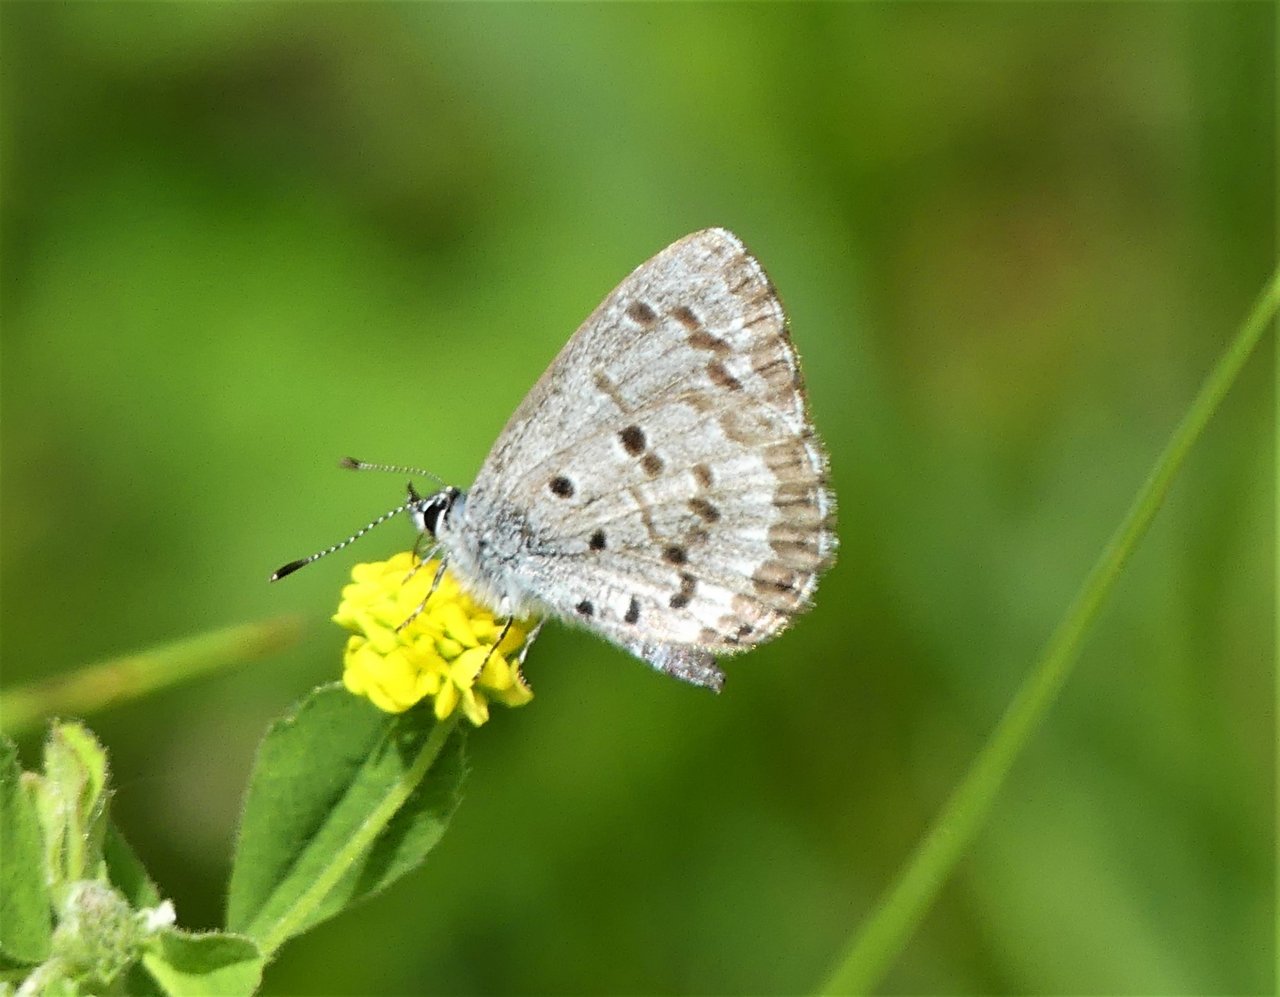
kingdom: Animalia
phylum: Arthropoda
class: Insecta
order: Lepidoptera
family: Lycaenidae
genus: Celastrina
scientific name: Celastrina lucia
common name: Northern Spring Azure
